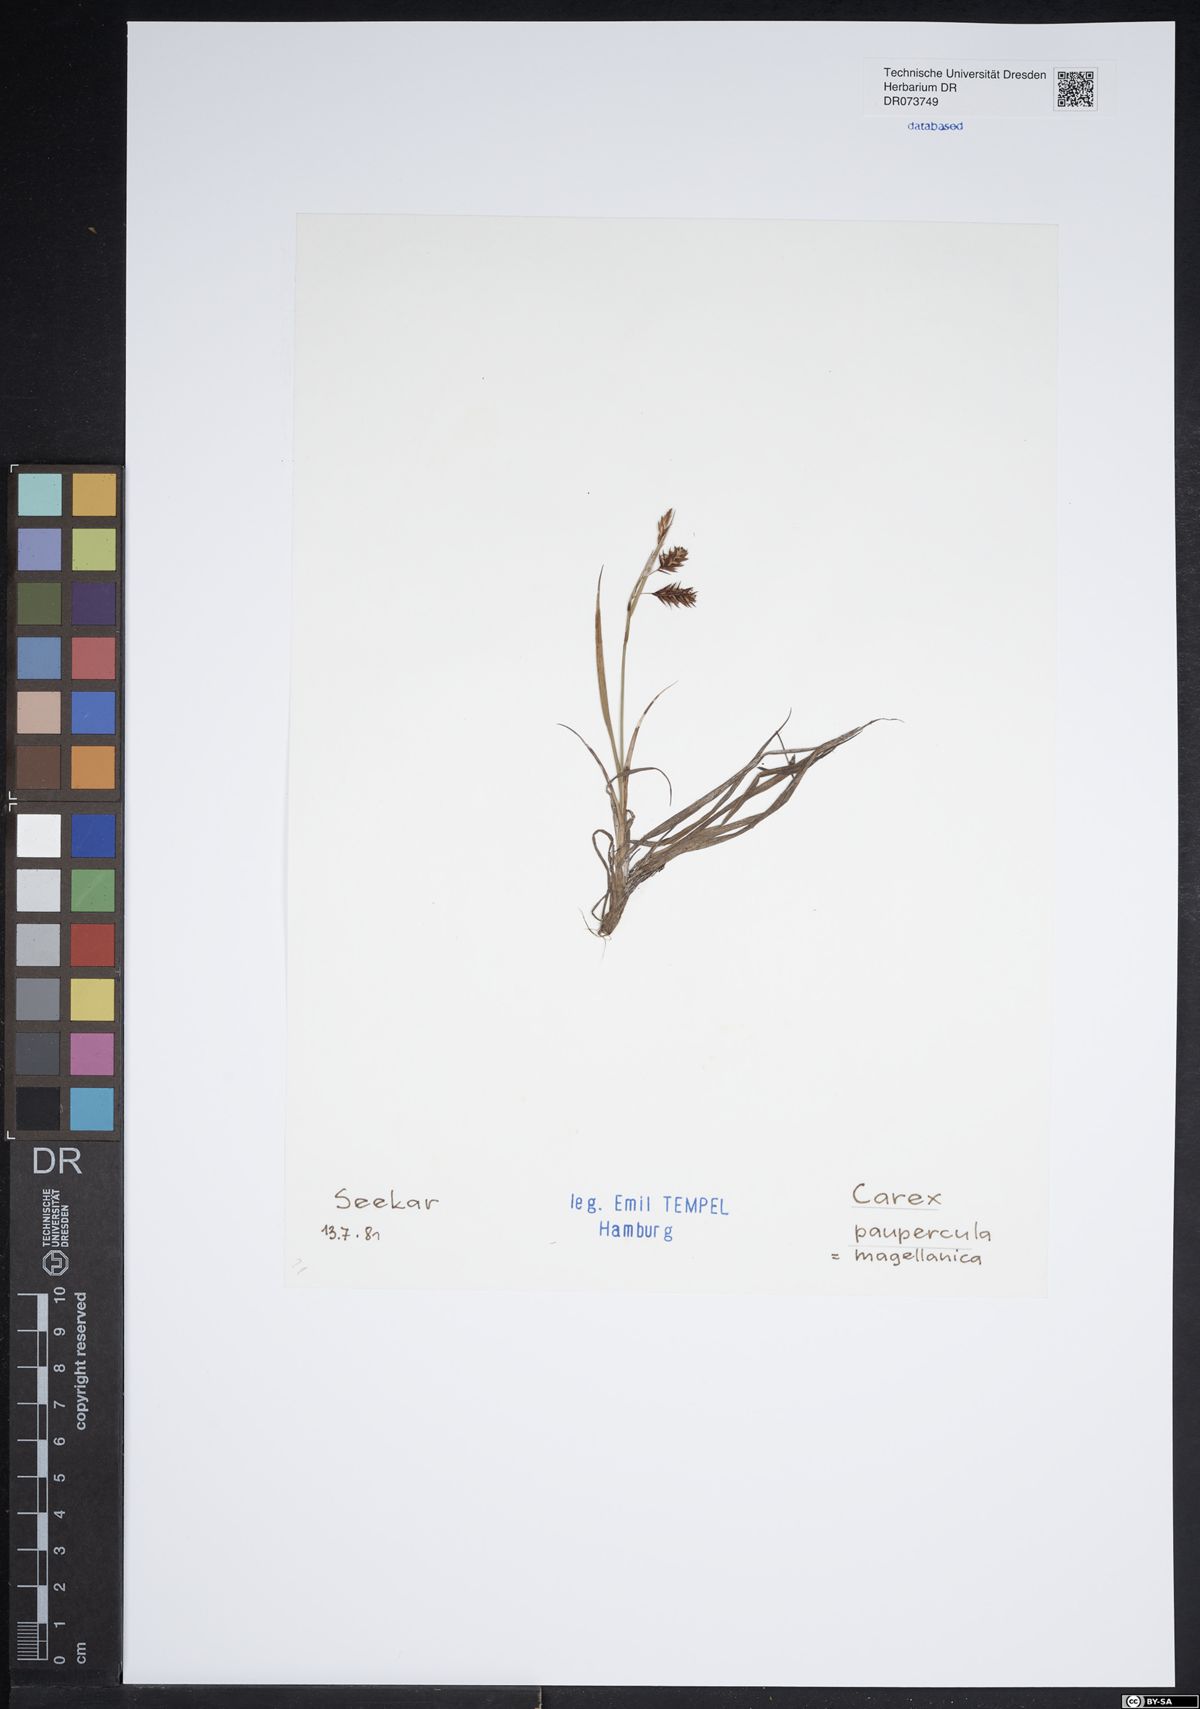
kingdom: Plantae
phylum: Tracheophyta
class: Liliopsida
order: Poales
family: Cyperaceae
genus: Carex
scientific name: Carex magellanica
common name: Bog sedge
